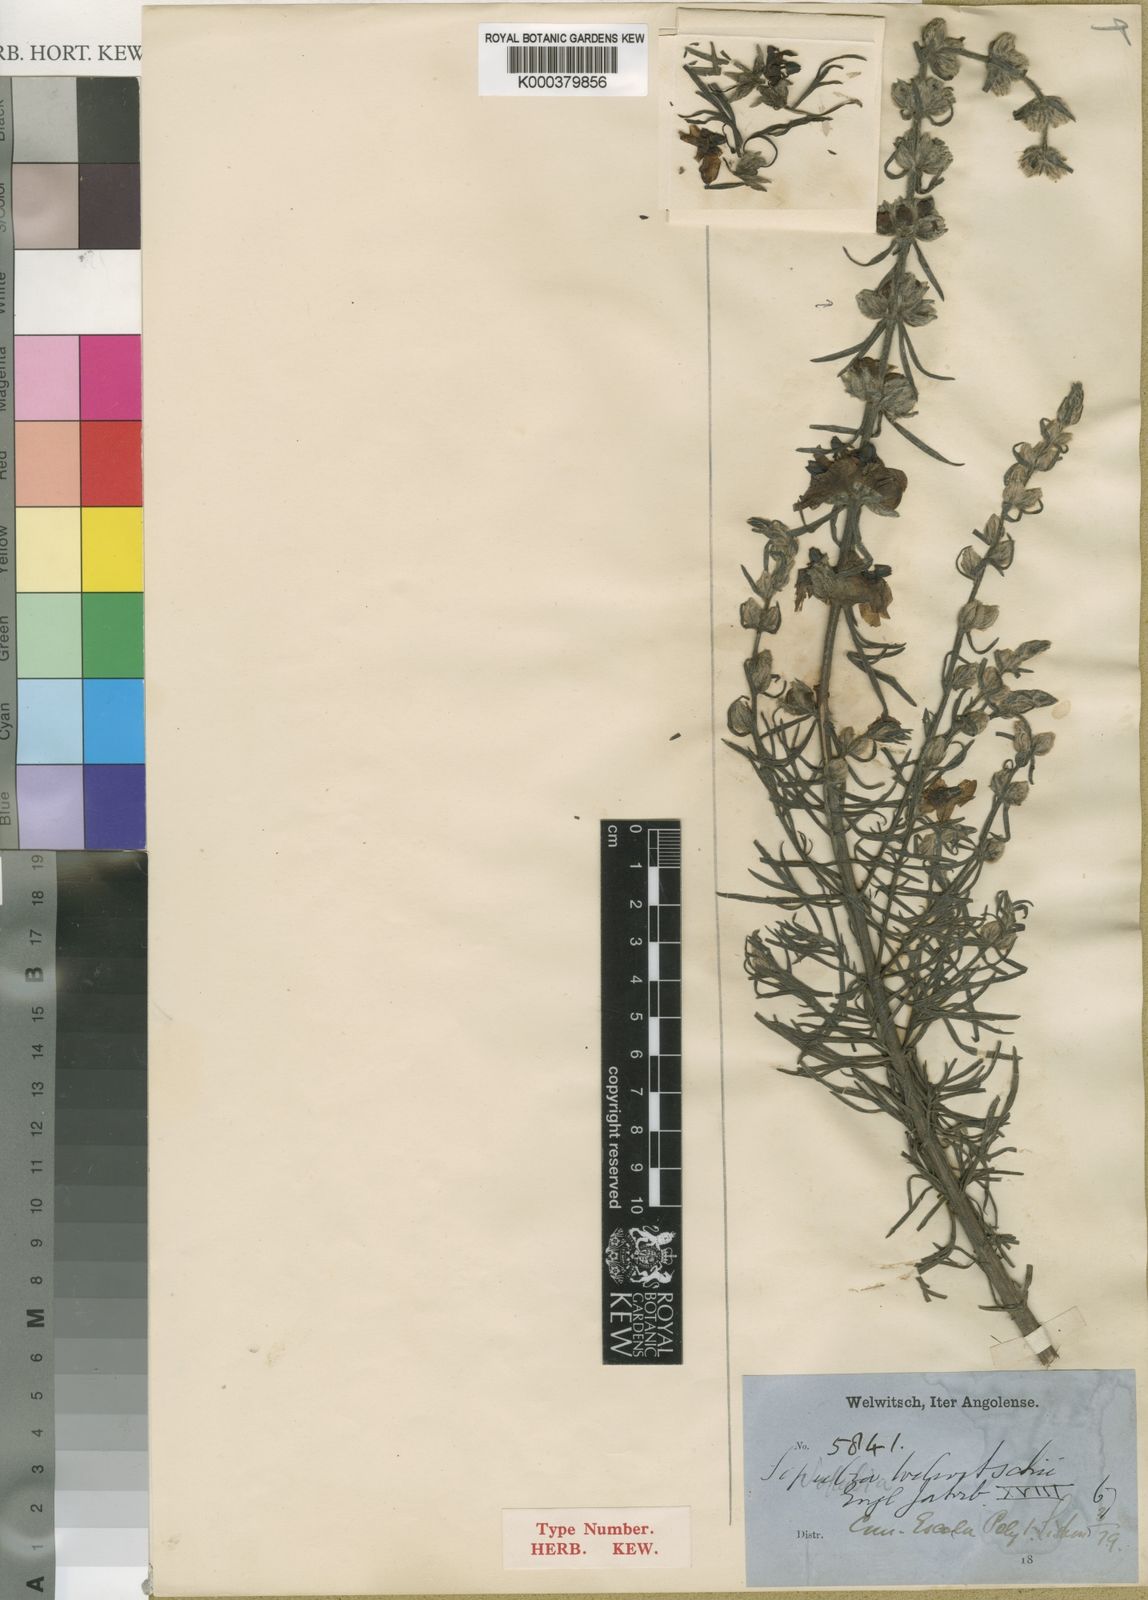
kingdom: Plantae
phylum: Tracheophyta
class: Magnoliopsida
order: Lamiales
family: Orobanchaceae
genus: Sopubia
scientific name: Sopubia karaguensis
